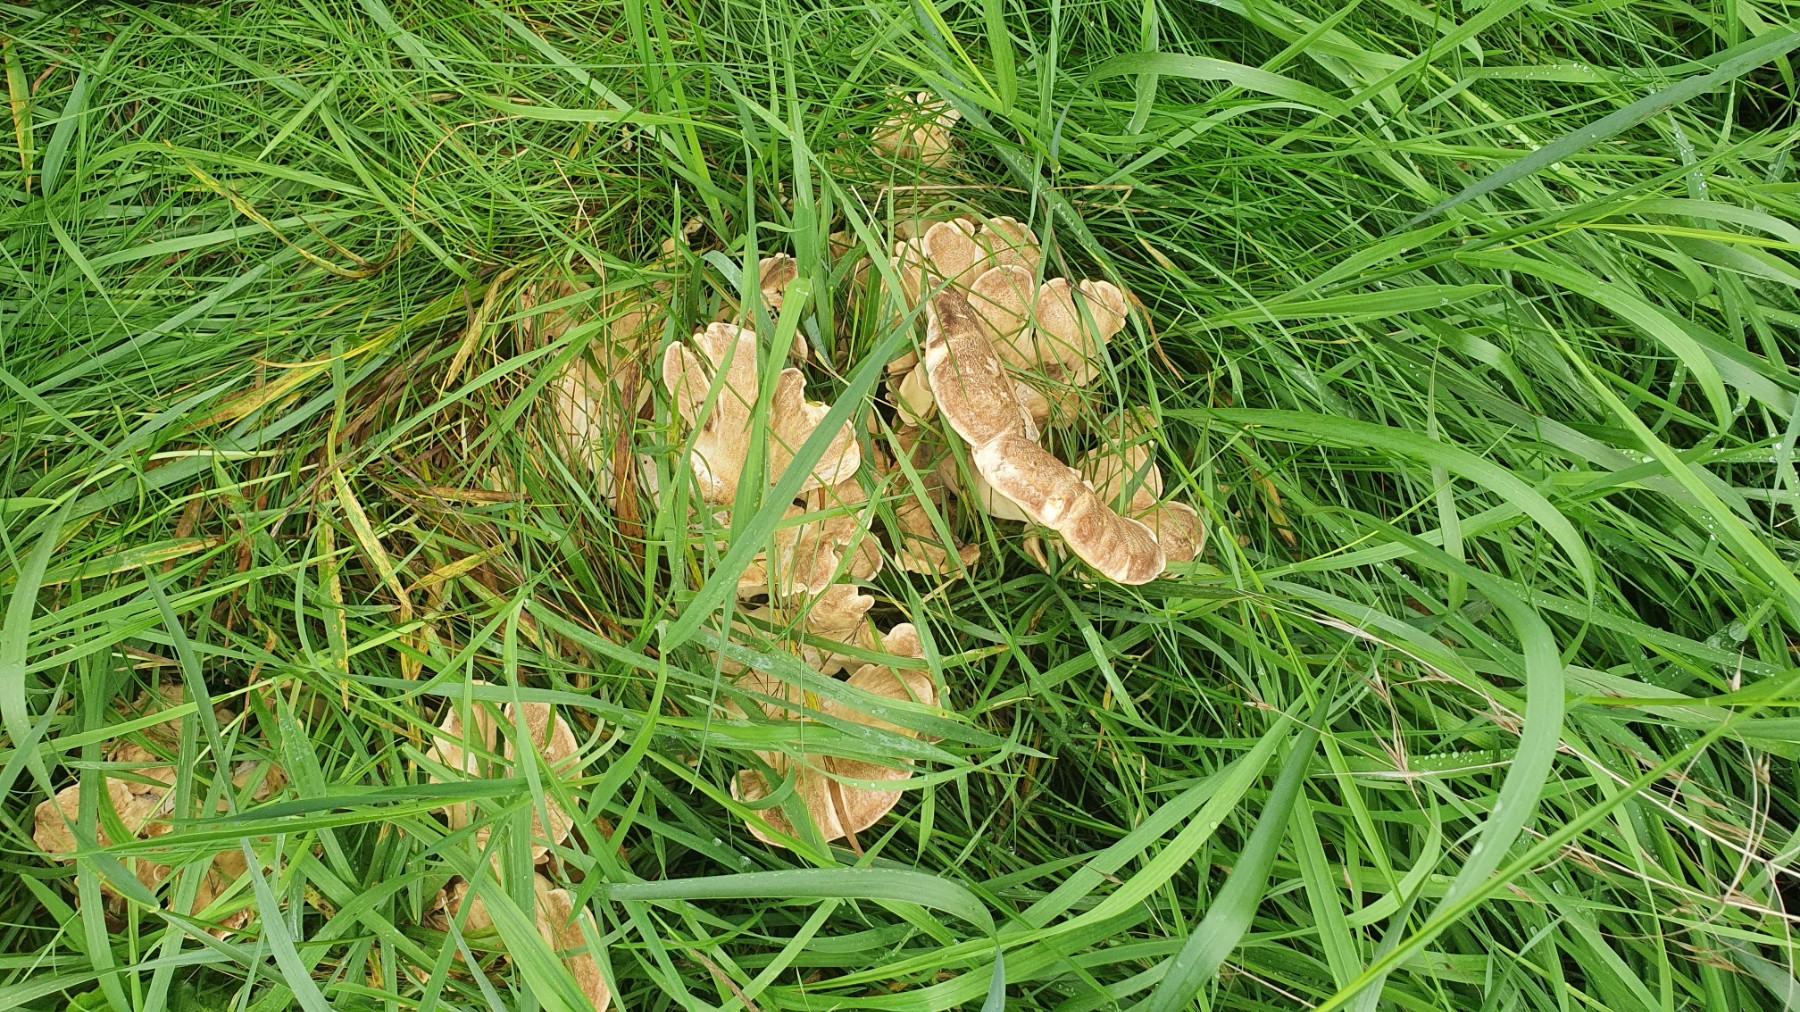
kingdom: Fungi
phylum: Basidiomycota
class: Agaricomycetes
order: Polyporales
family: Meripilaceae
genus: Meripilus
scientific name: Meripilus giganteus
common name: kæmpeporesvamp
